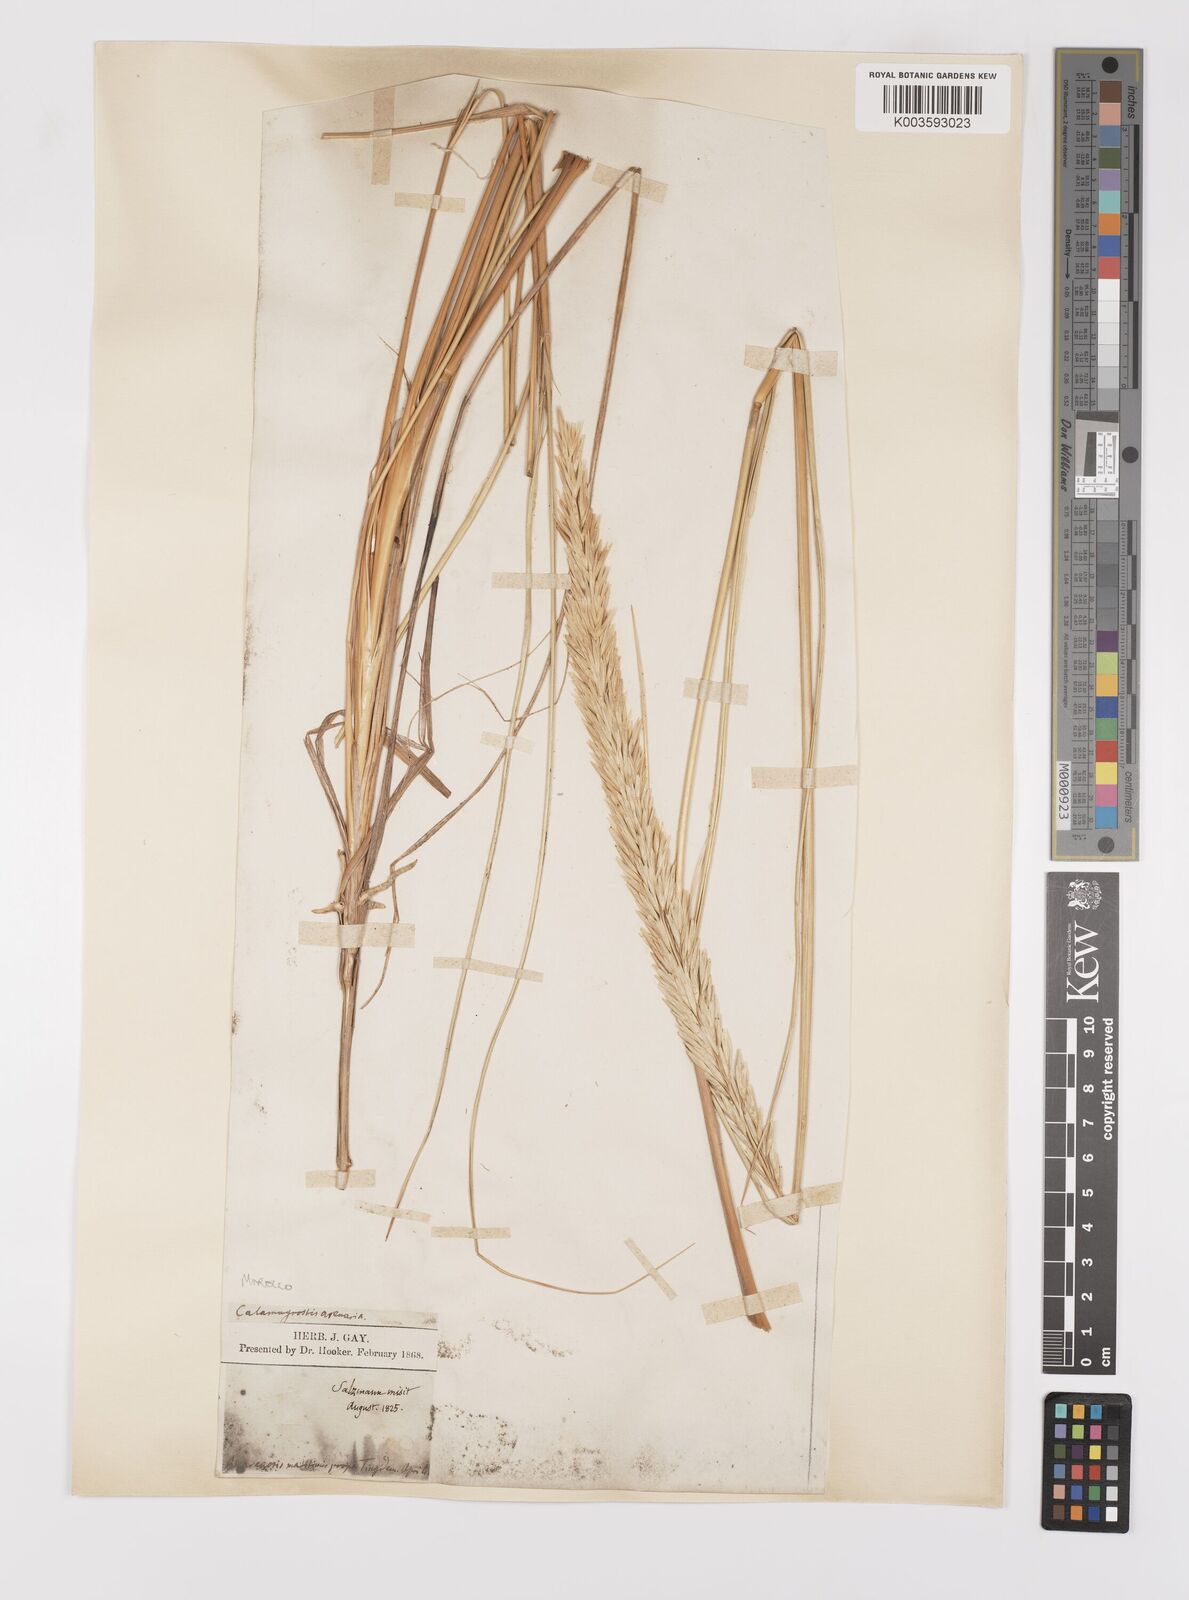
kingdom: Plantae
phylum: Tracheophyta
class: Liliopsida
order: Poales
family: Poaceae
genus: Calamagrostis
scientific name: Calamagrostis arenaria
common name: European beachgrass
